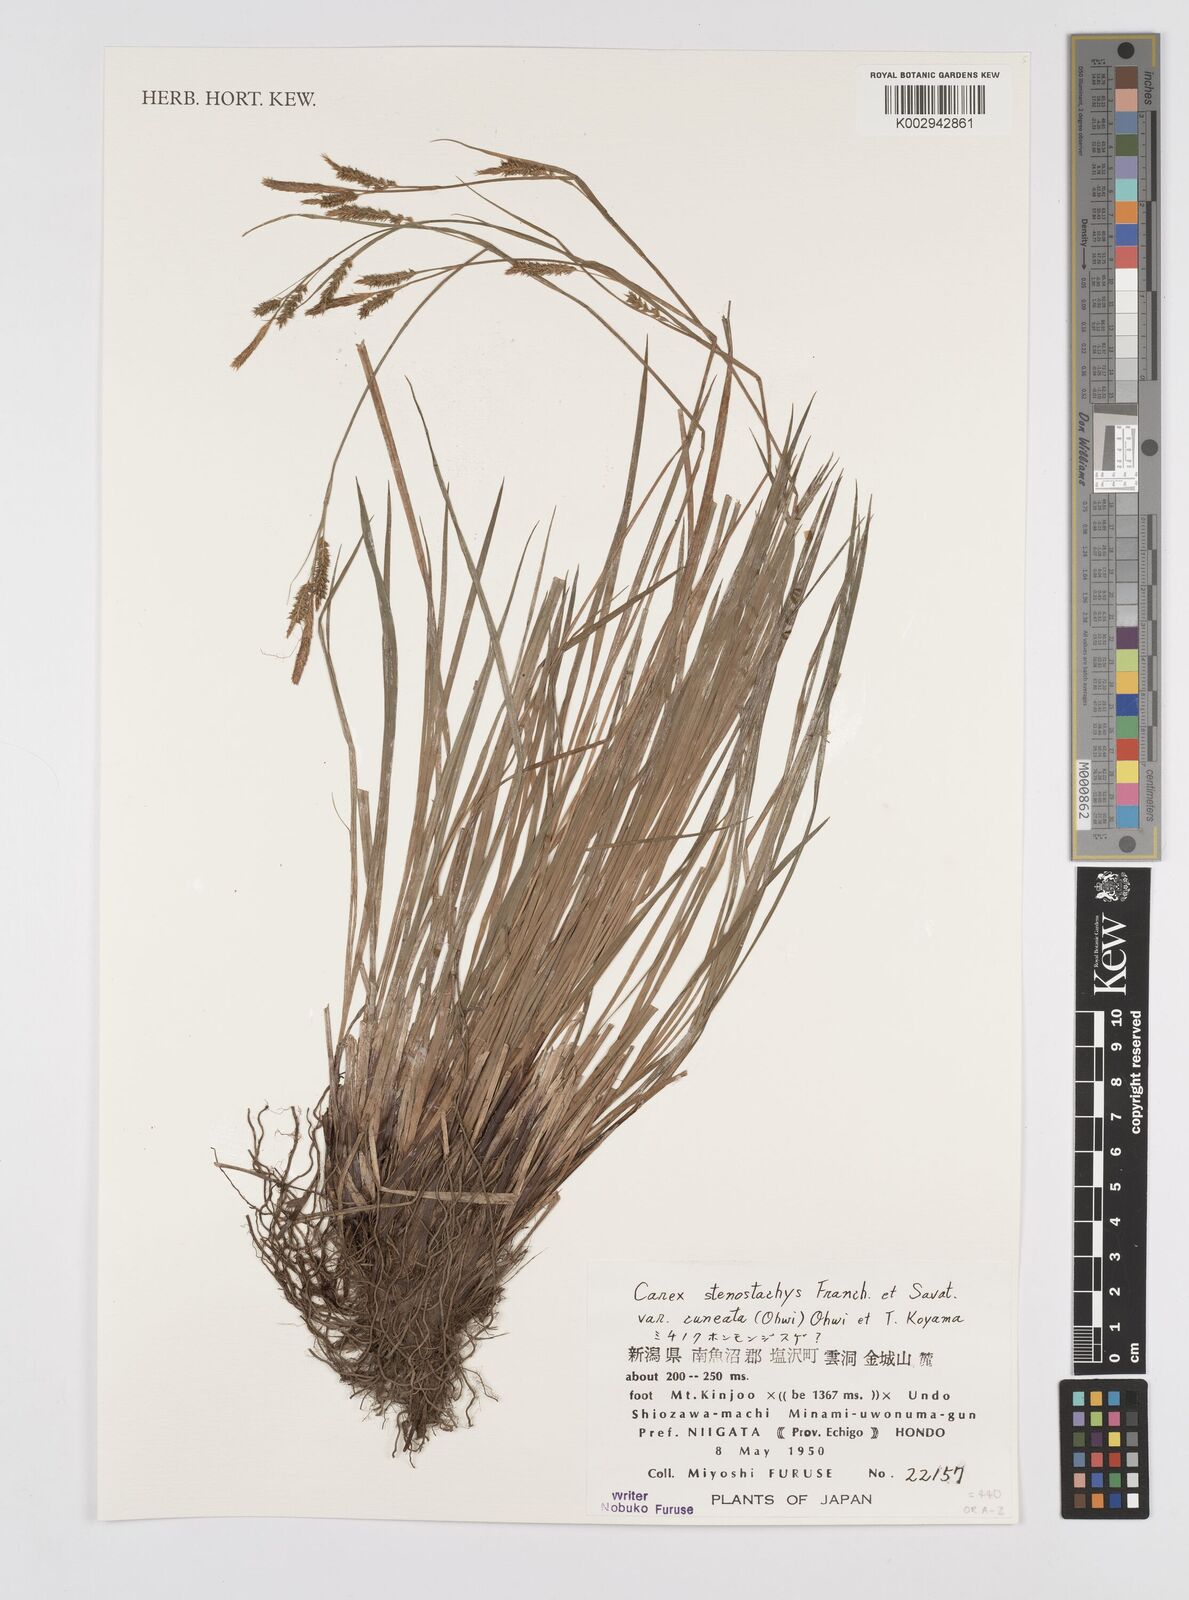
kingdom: Plantae
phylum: Tracheophyta
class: Liliopsida
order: Poales
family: Cyperaceae
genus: Carex
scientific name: Carex stenostachys
